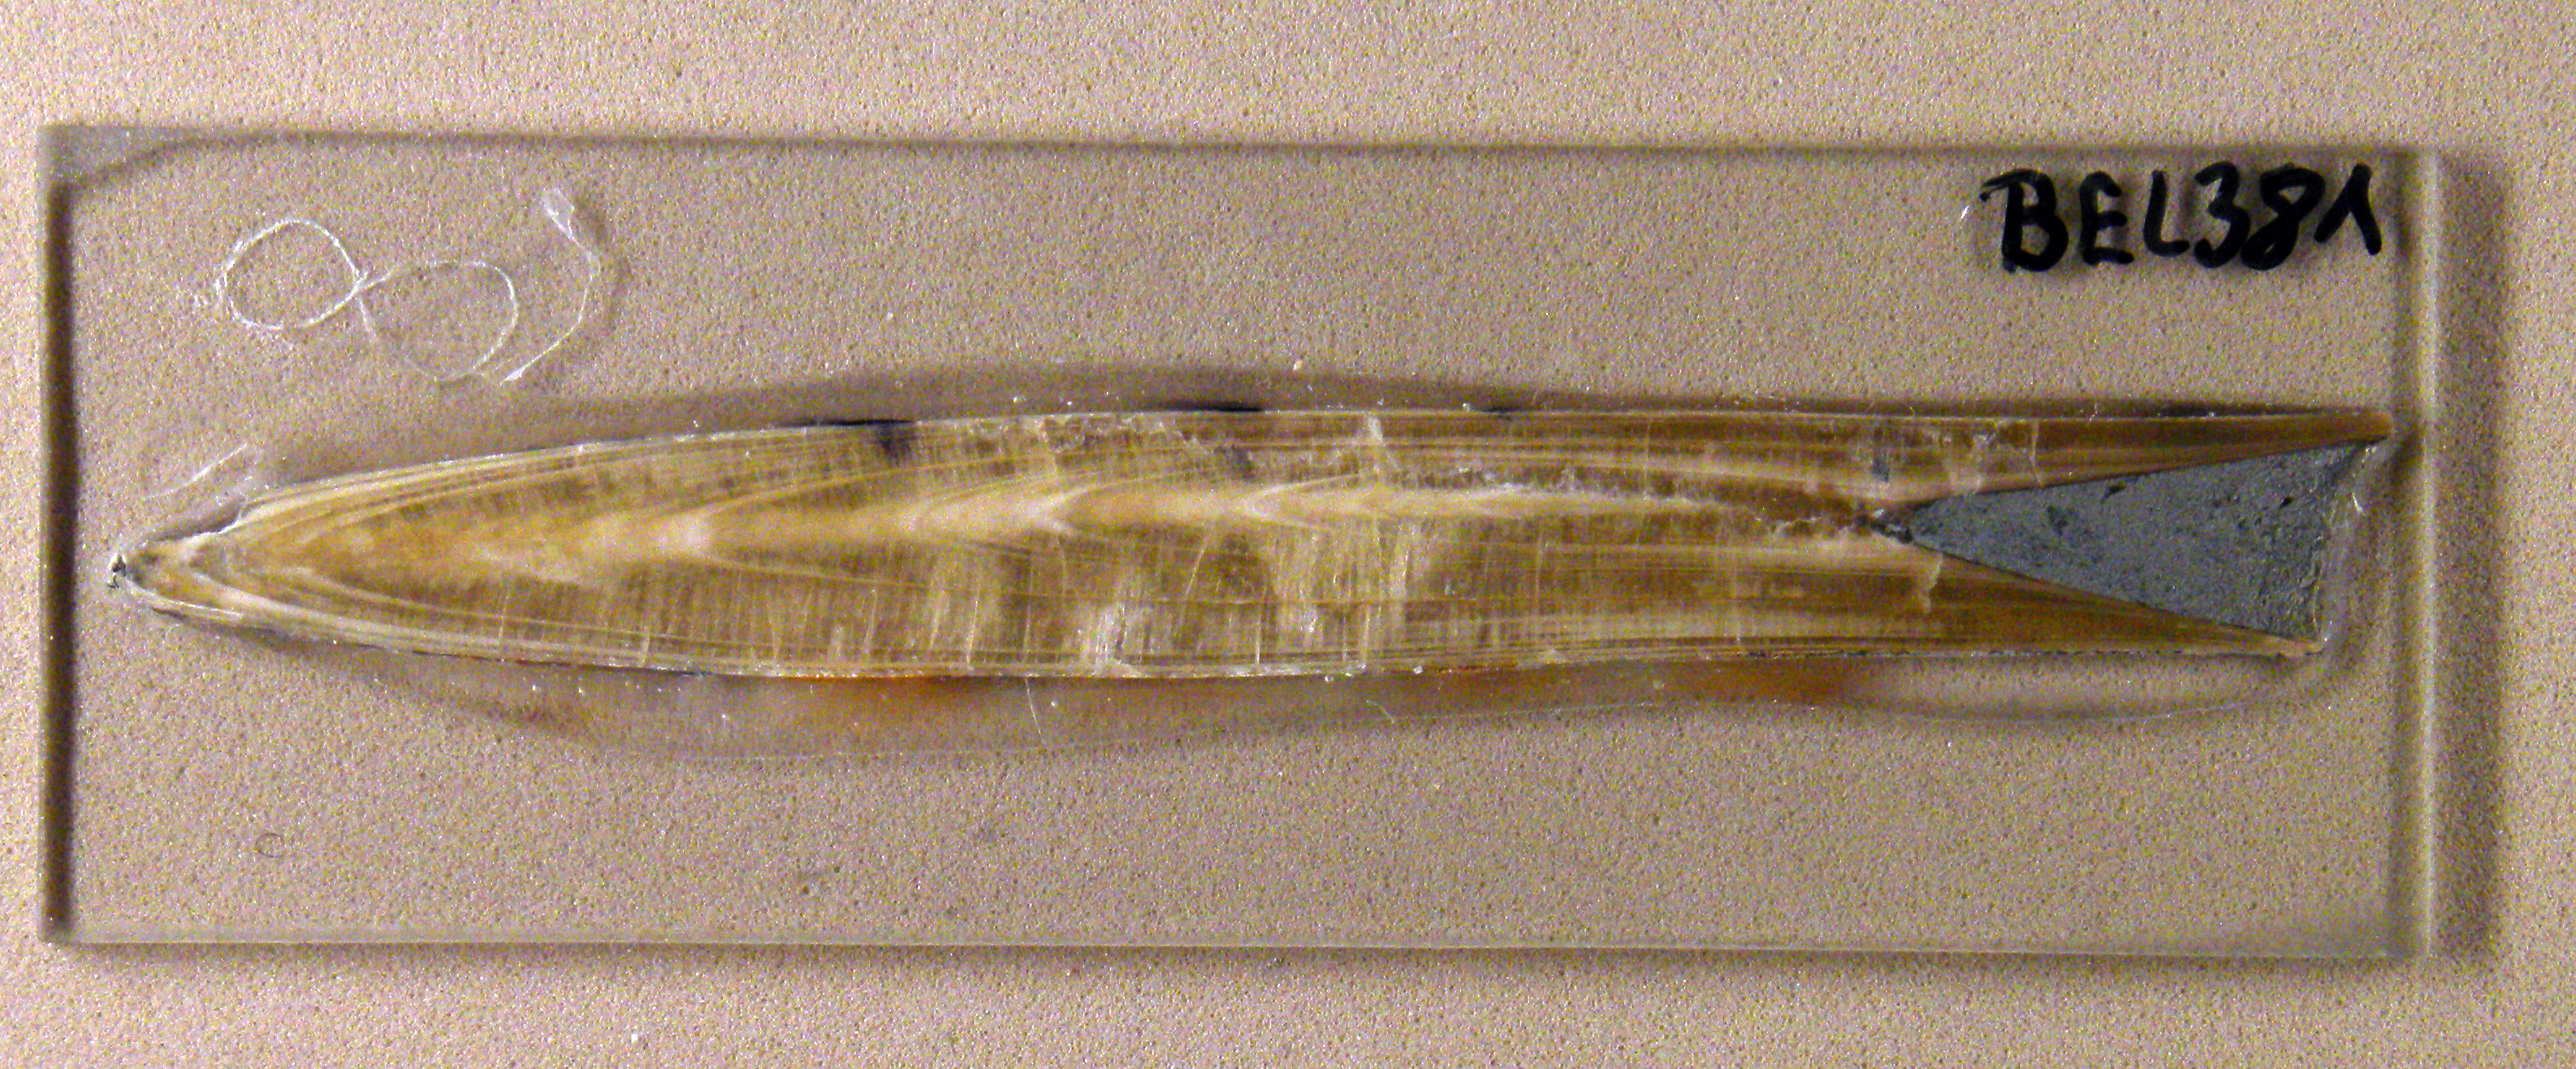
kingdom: Animalia
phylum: Mollusca
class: Cephalopoda
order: Belemnitida
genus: Bairstowius
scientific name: Bairstowius
